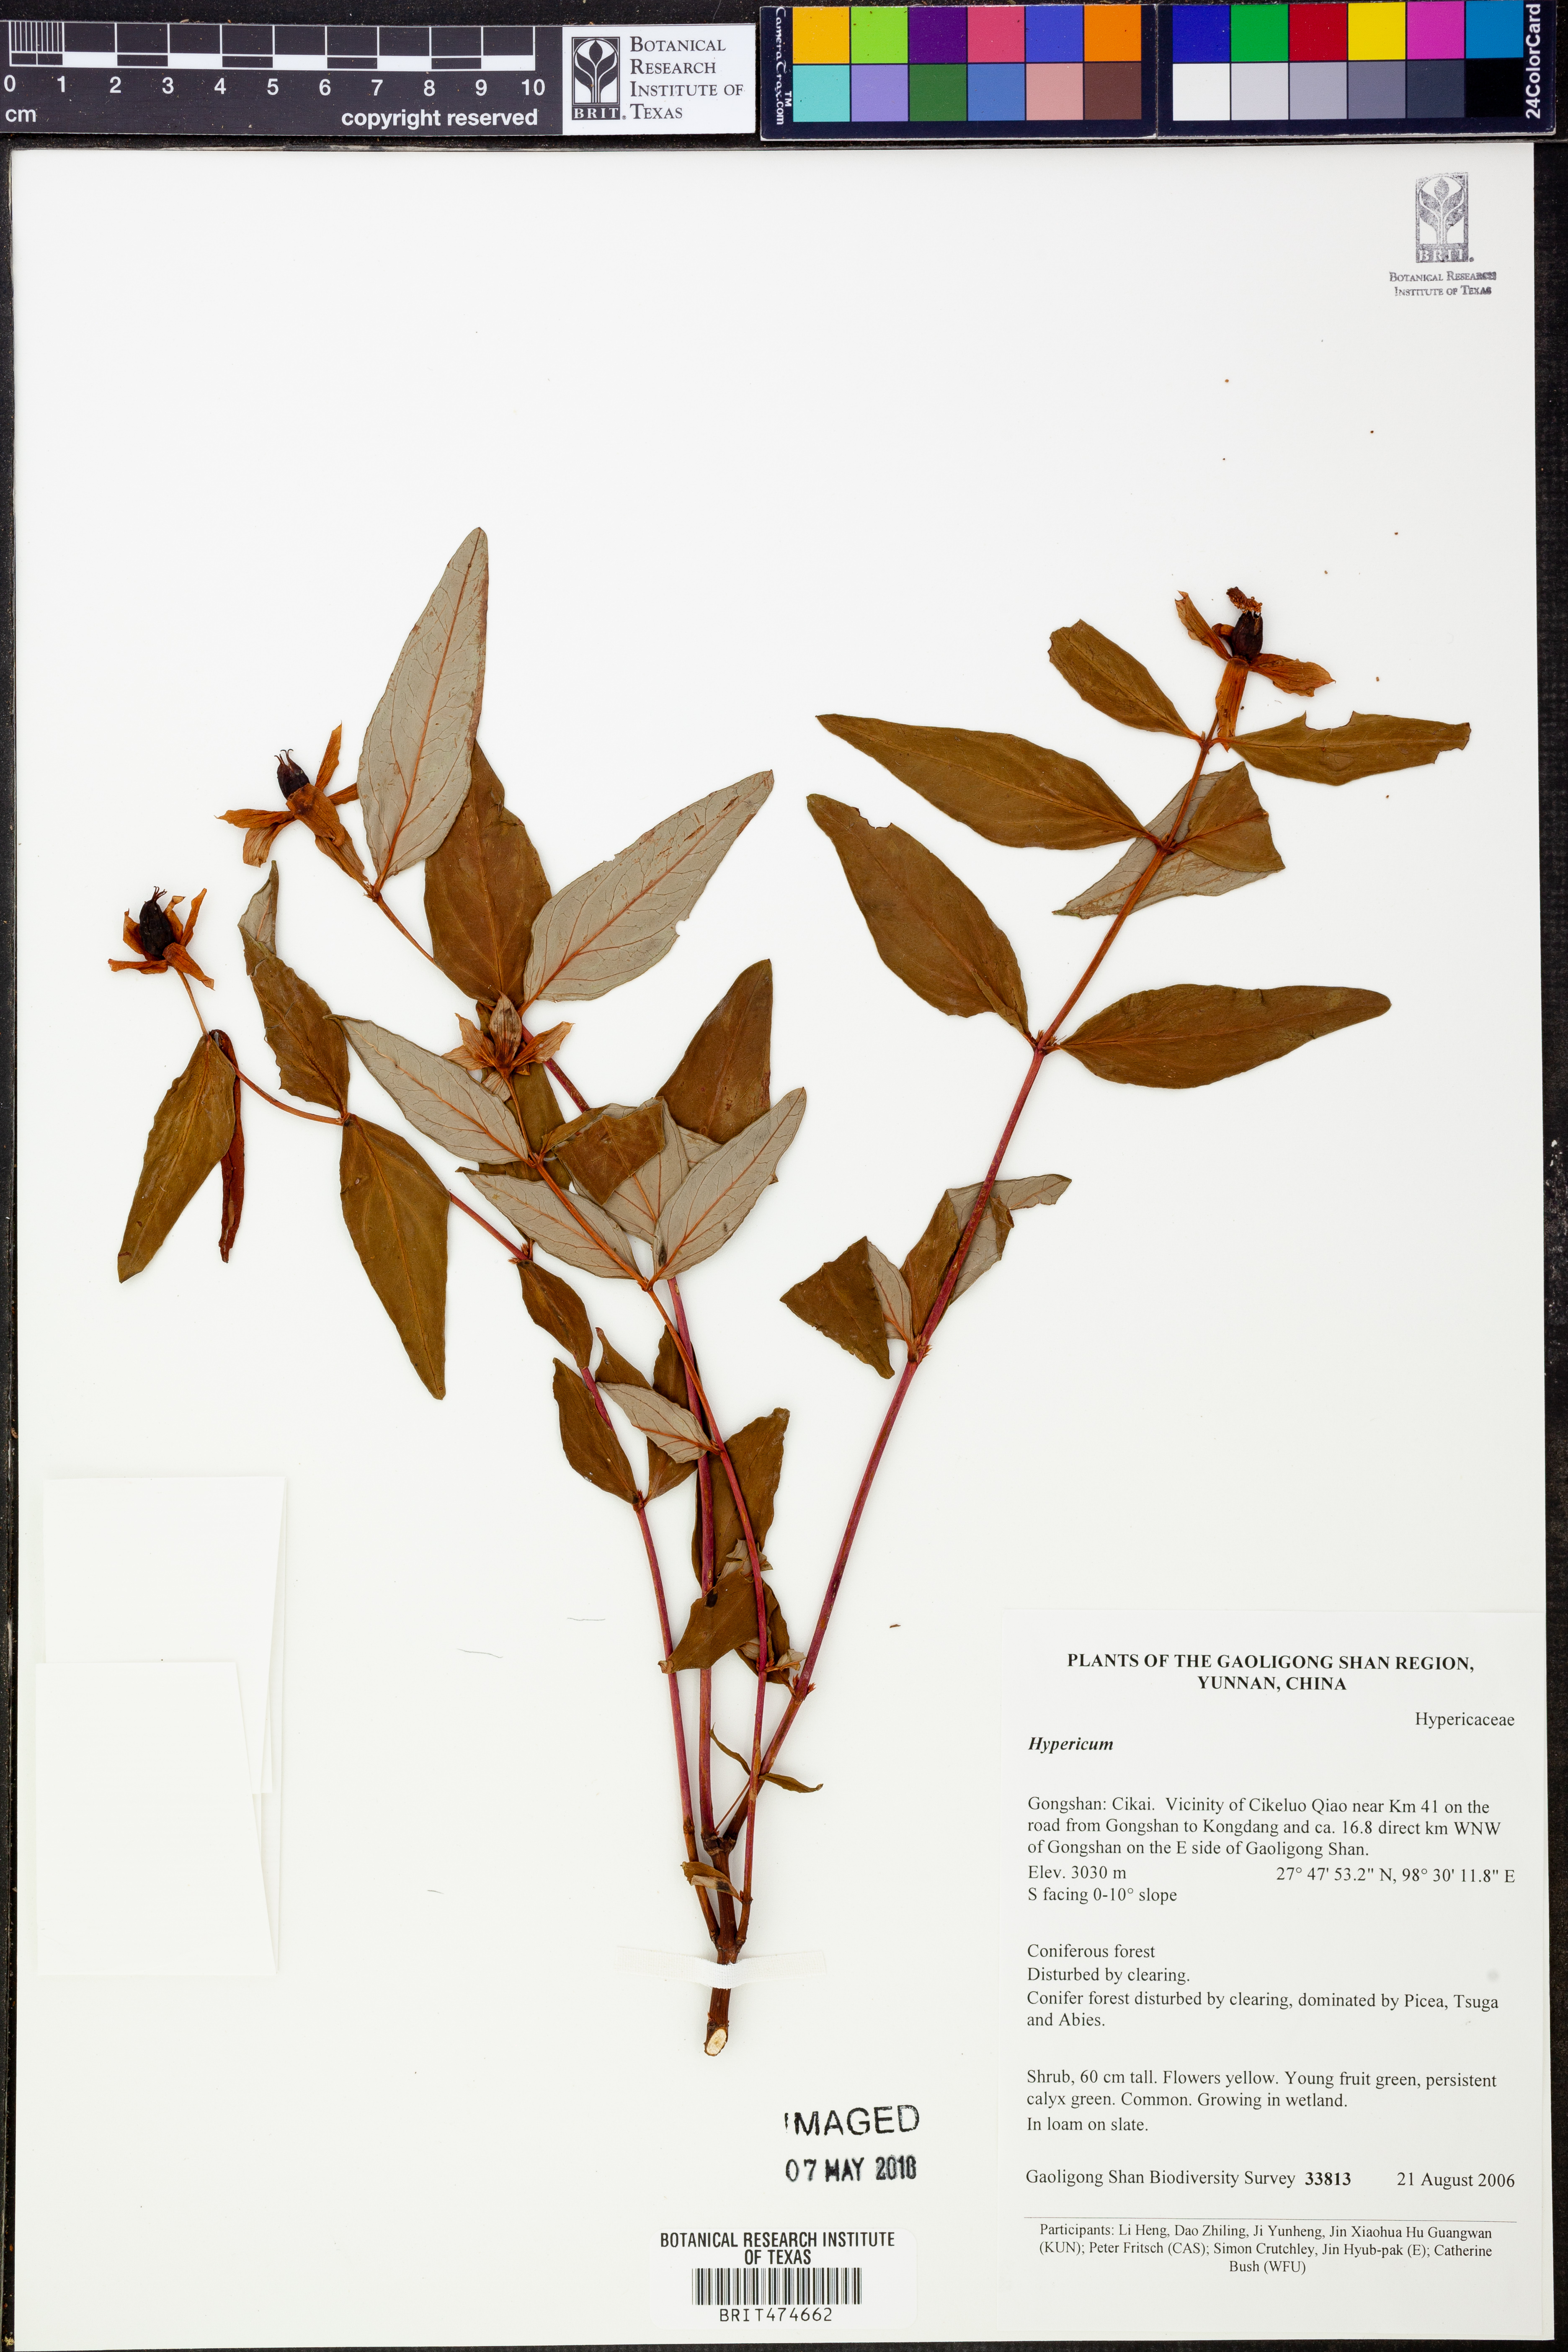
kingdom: Plantae
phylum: Tracheophyta
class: Magnoliopsida
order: Malpighiales
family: Hypericaceae
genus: Hypericum
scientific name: Hypericum
